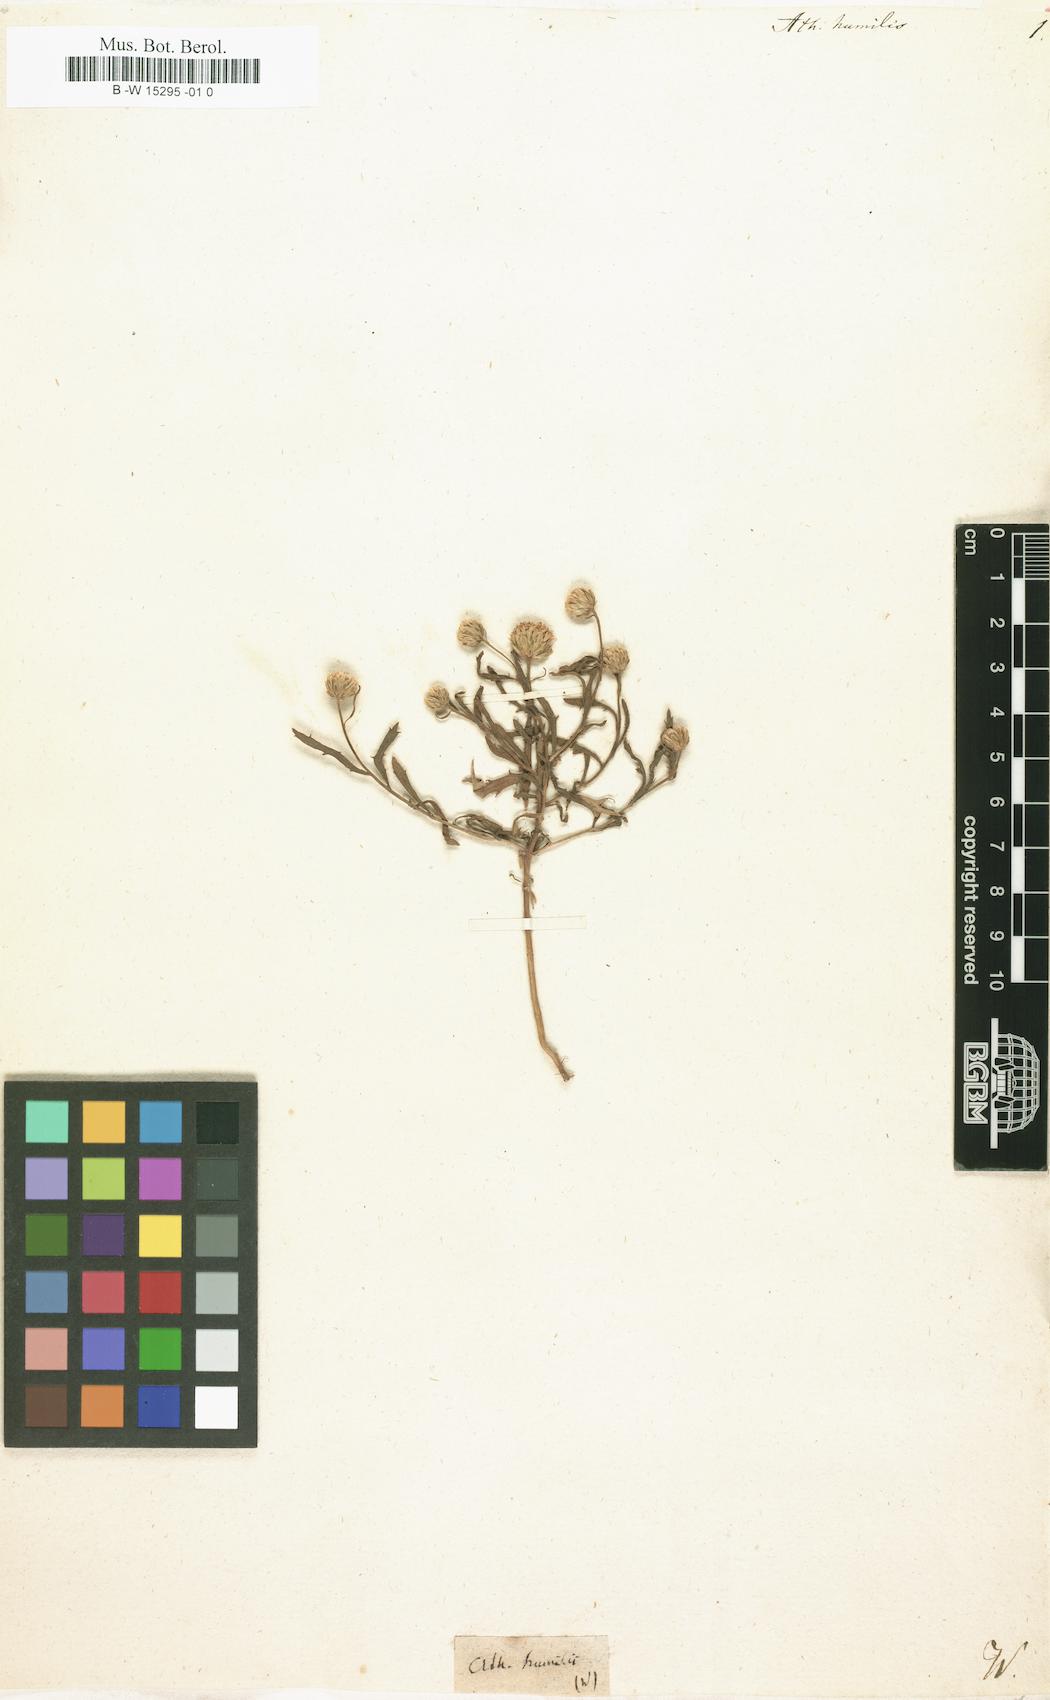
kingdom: Plantae
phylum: Tracheophyta
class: Magnoliopsida
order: Asterales
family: Asteraceae
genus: Athanasia
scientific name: Athanasia humilis
